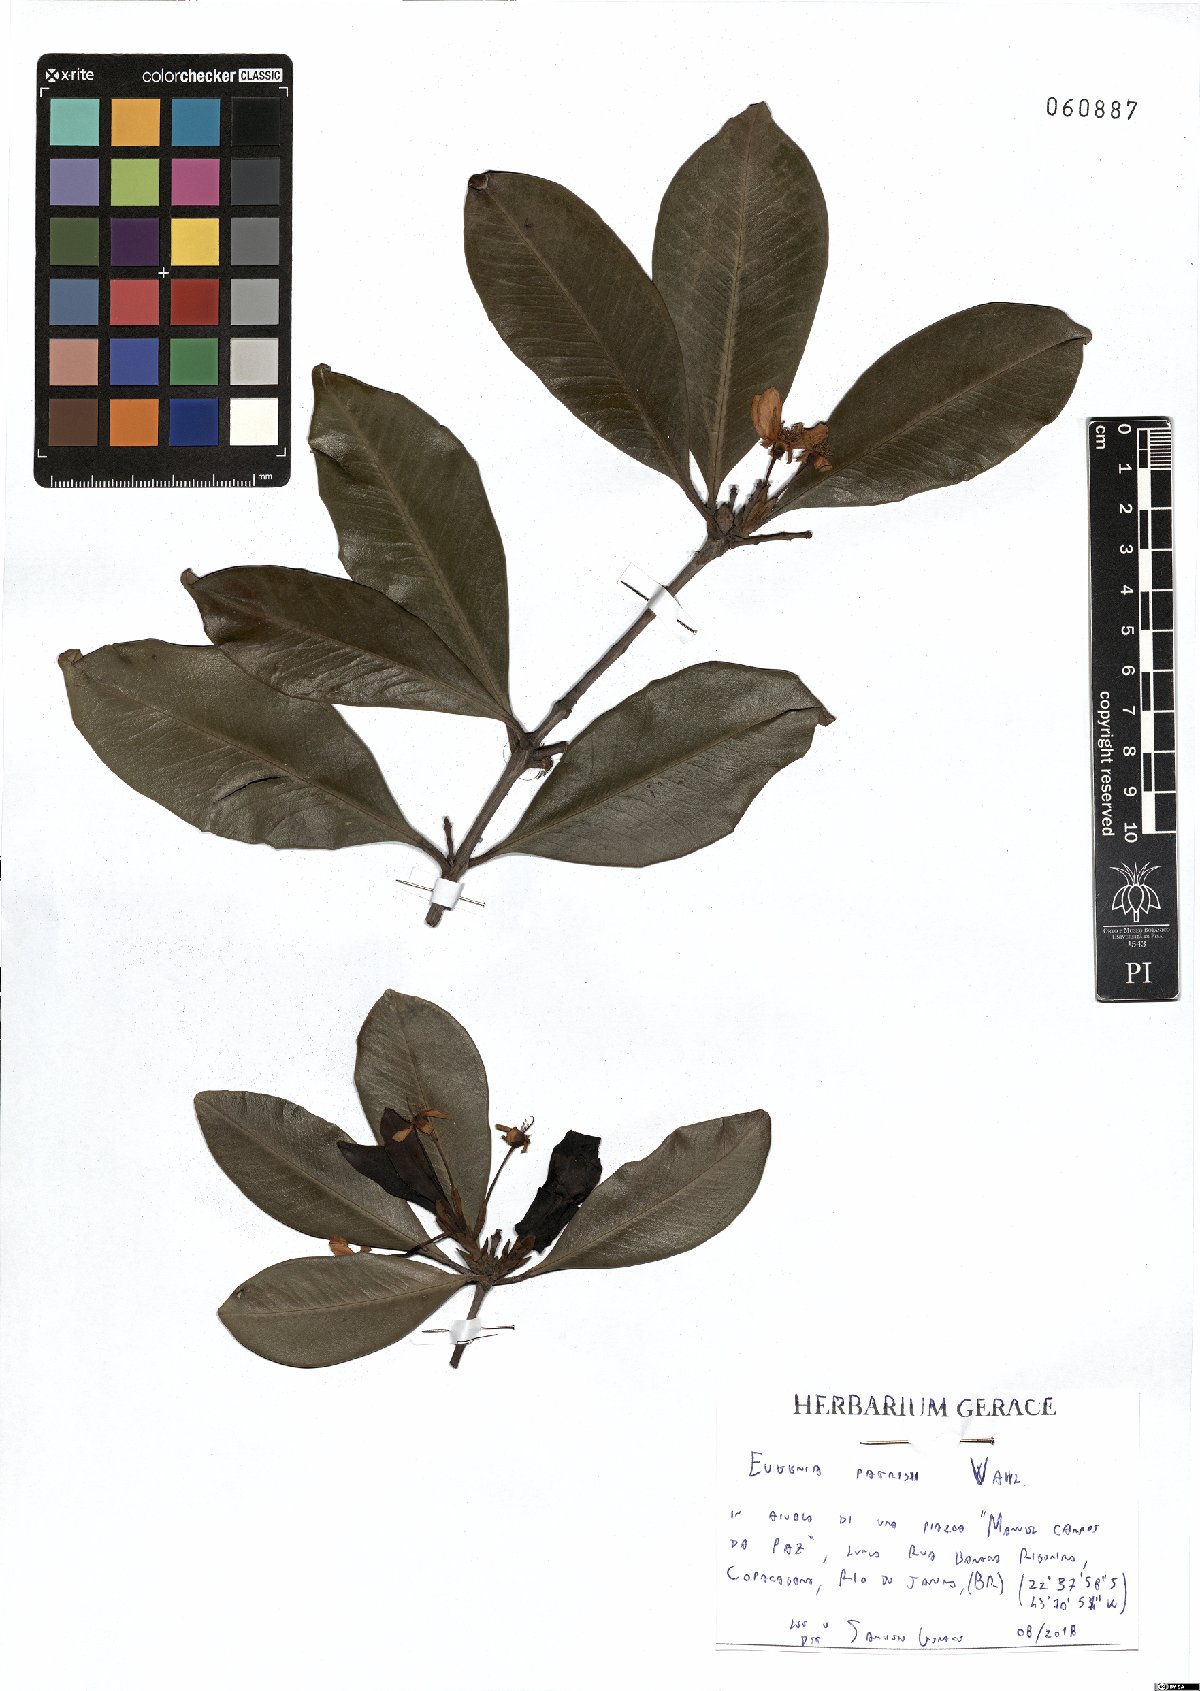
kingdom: Plantae
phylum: Tracheophyta
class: Magnoliopsida
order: Myrtales
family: Myrtaceae
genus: Eugenia
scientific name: Eugenia patrisii
